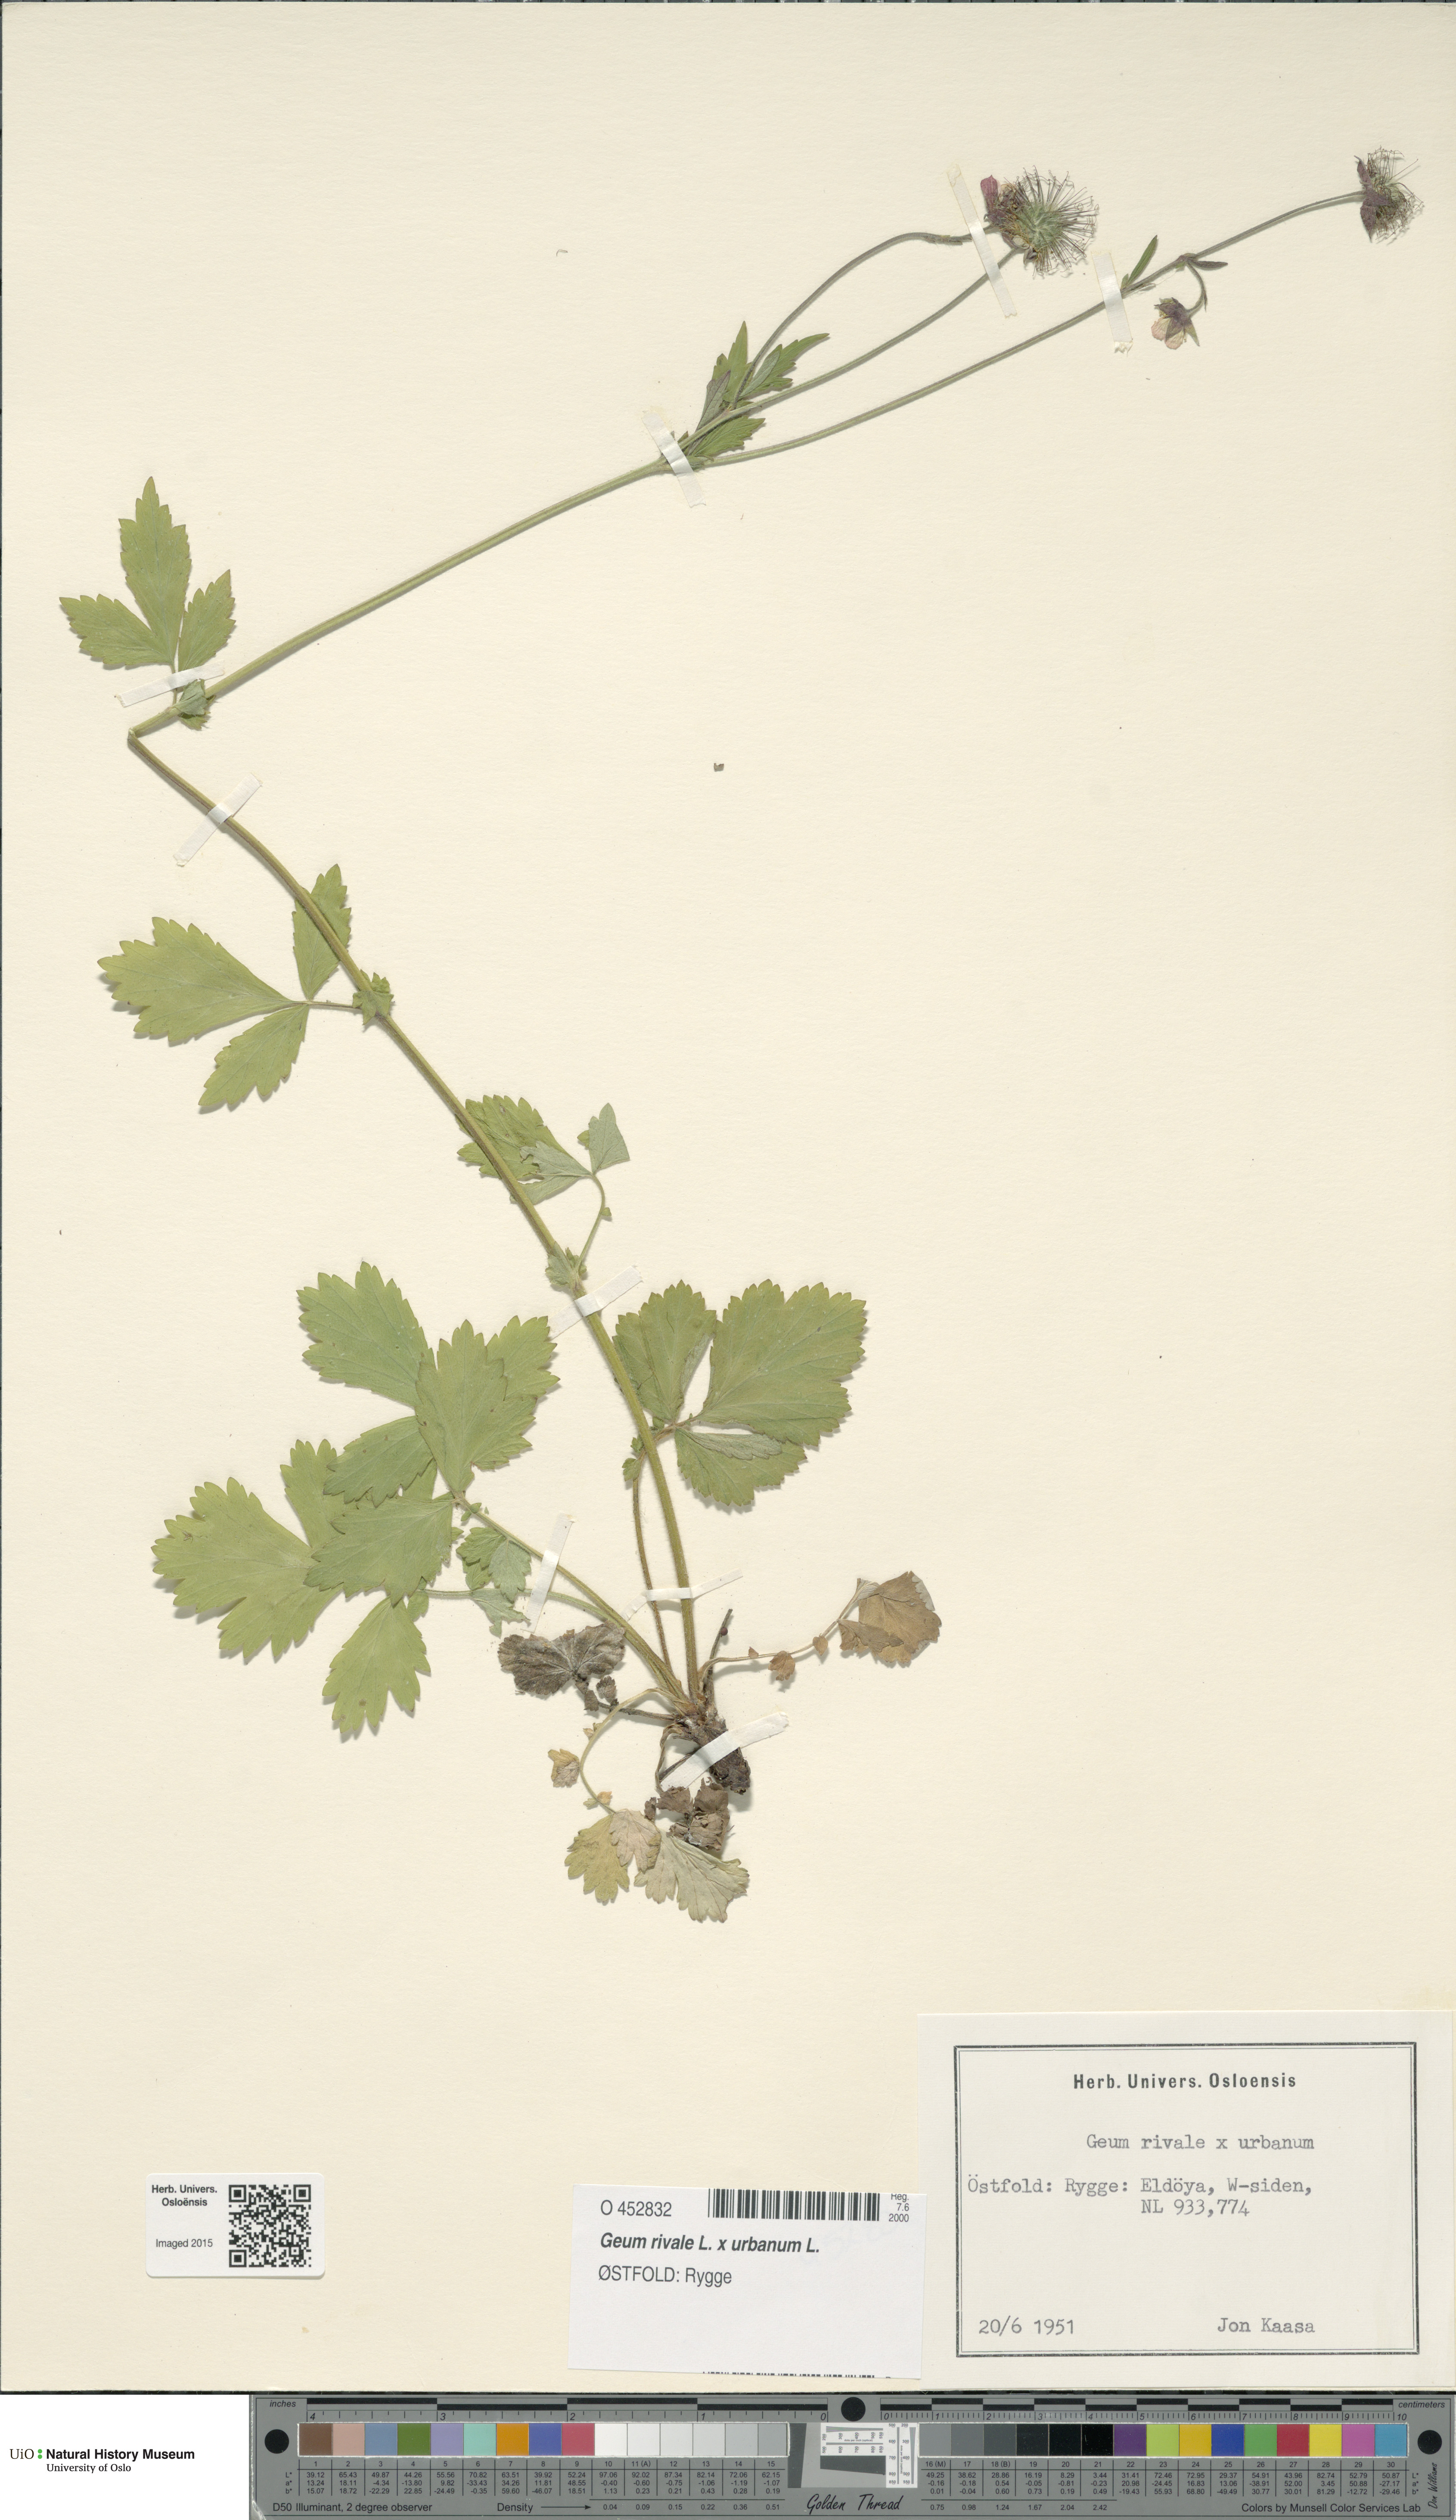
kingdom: Plantae
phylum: Tracheophyta
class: Magnoliopsida
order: Rosales
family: Rosaceae
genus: Geum
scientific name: Geum
